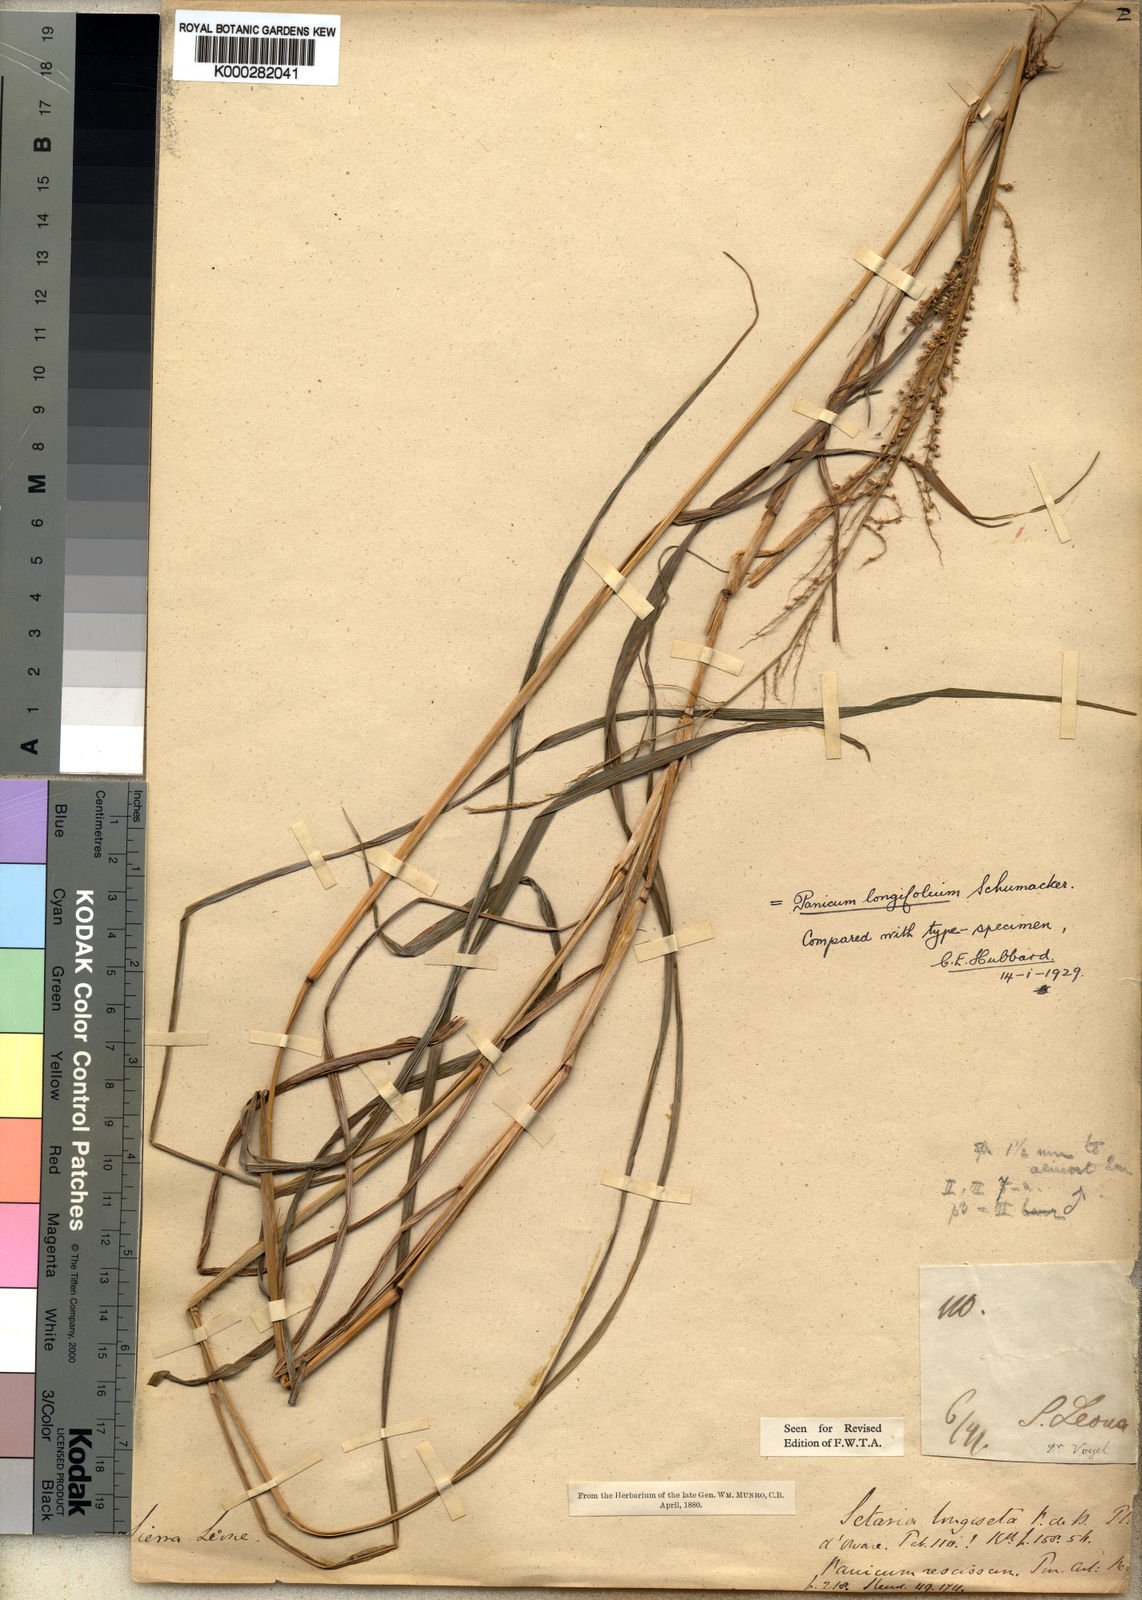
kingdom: Plantae
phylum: Tracheophyta
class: Liliopsida
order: Poales
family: Poaceae
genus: Setaria
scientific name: Setaria longiseta
